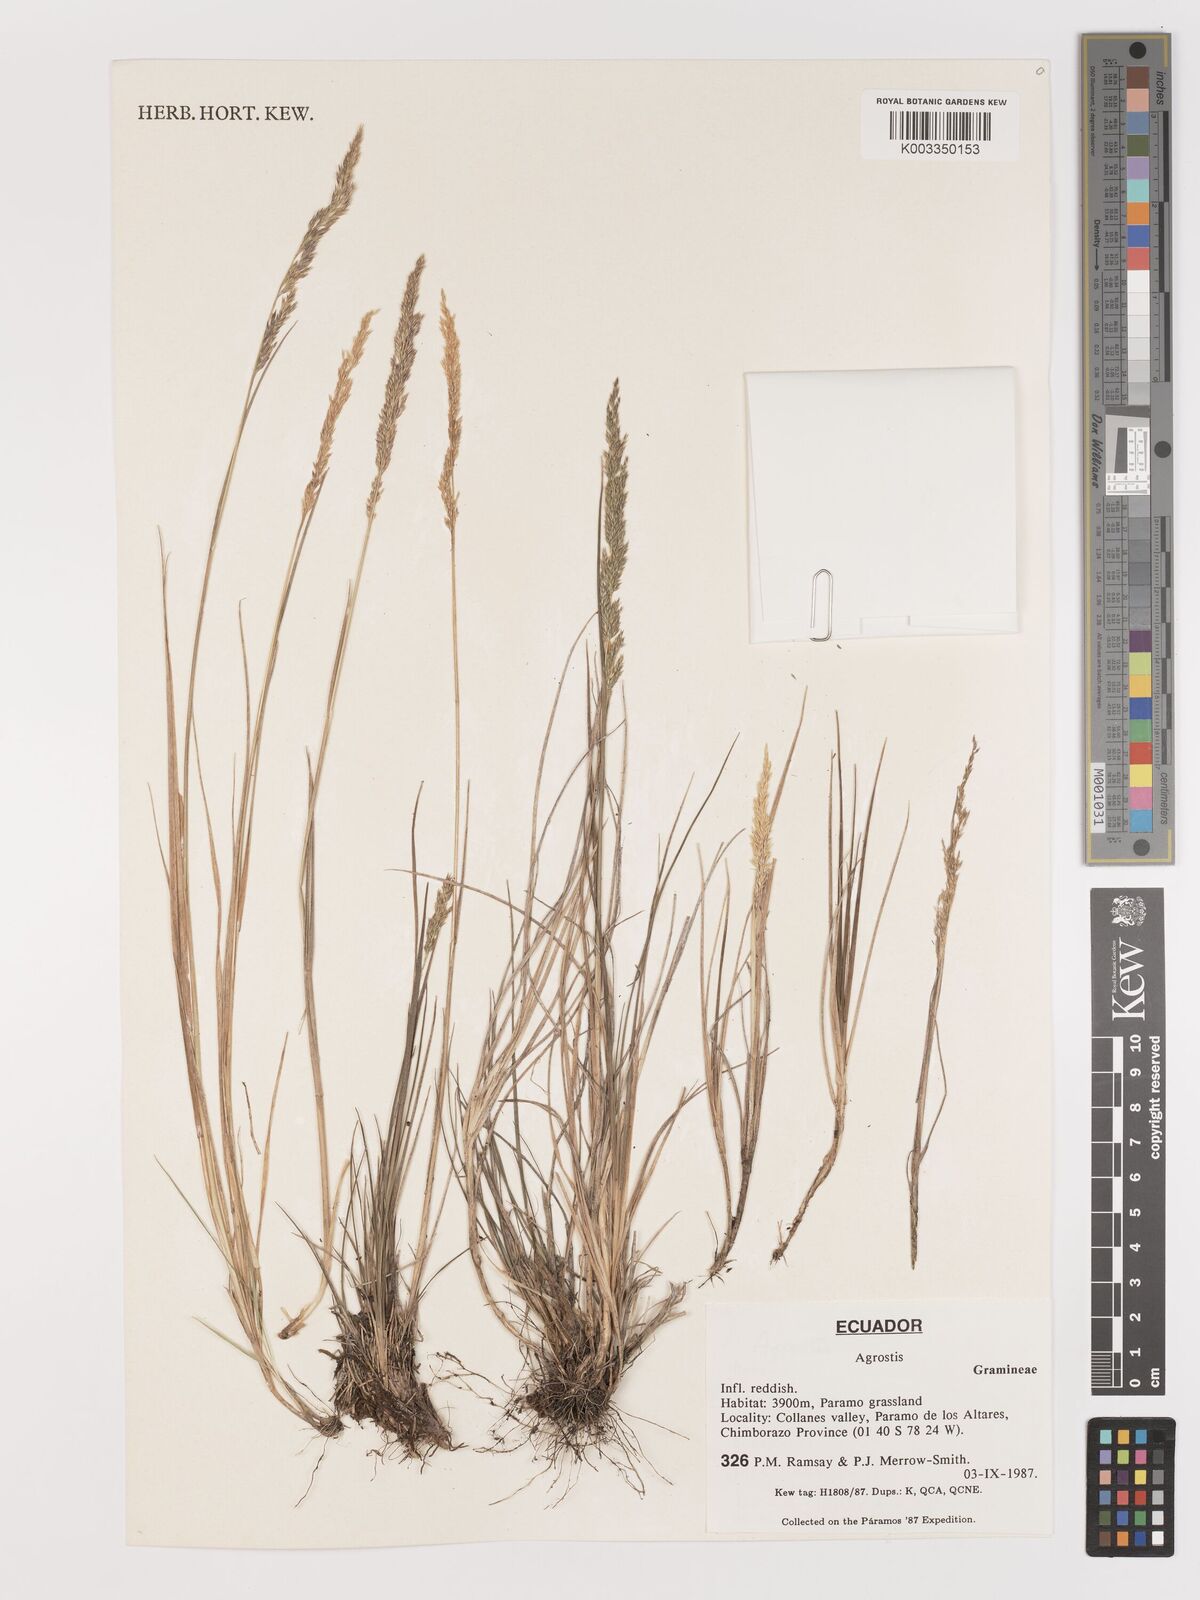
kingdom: Plantae
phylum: Tracheophyta
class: Liliopsida
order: Poales
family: Poaceae
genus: Agrostis
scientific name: Agrostis
